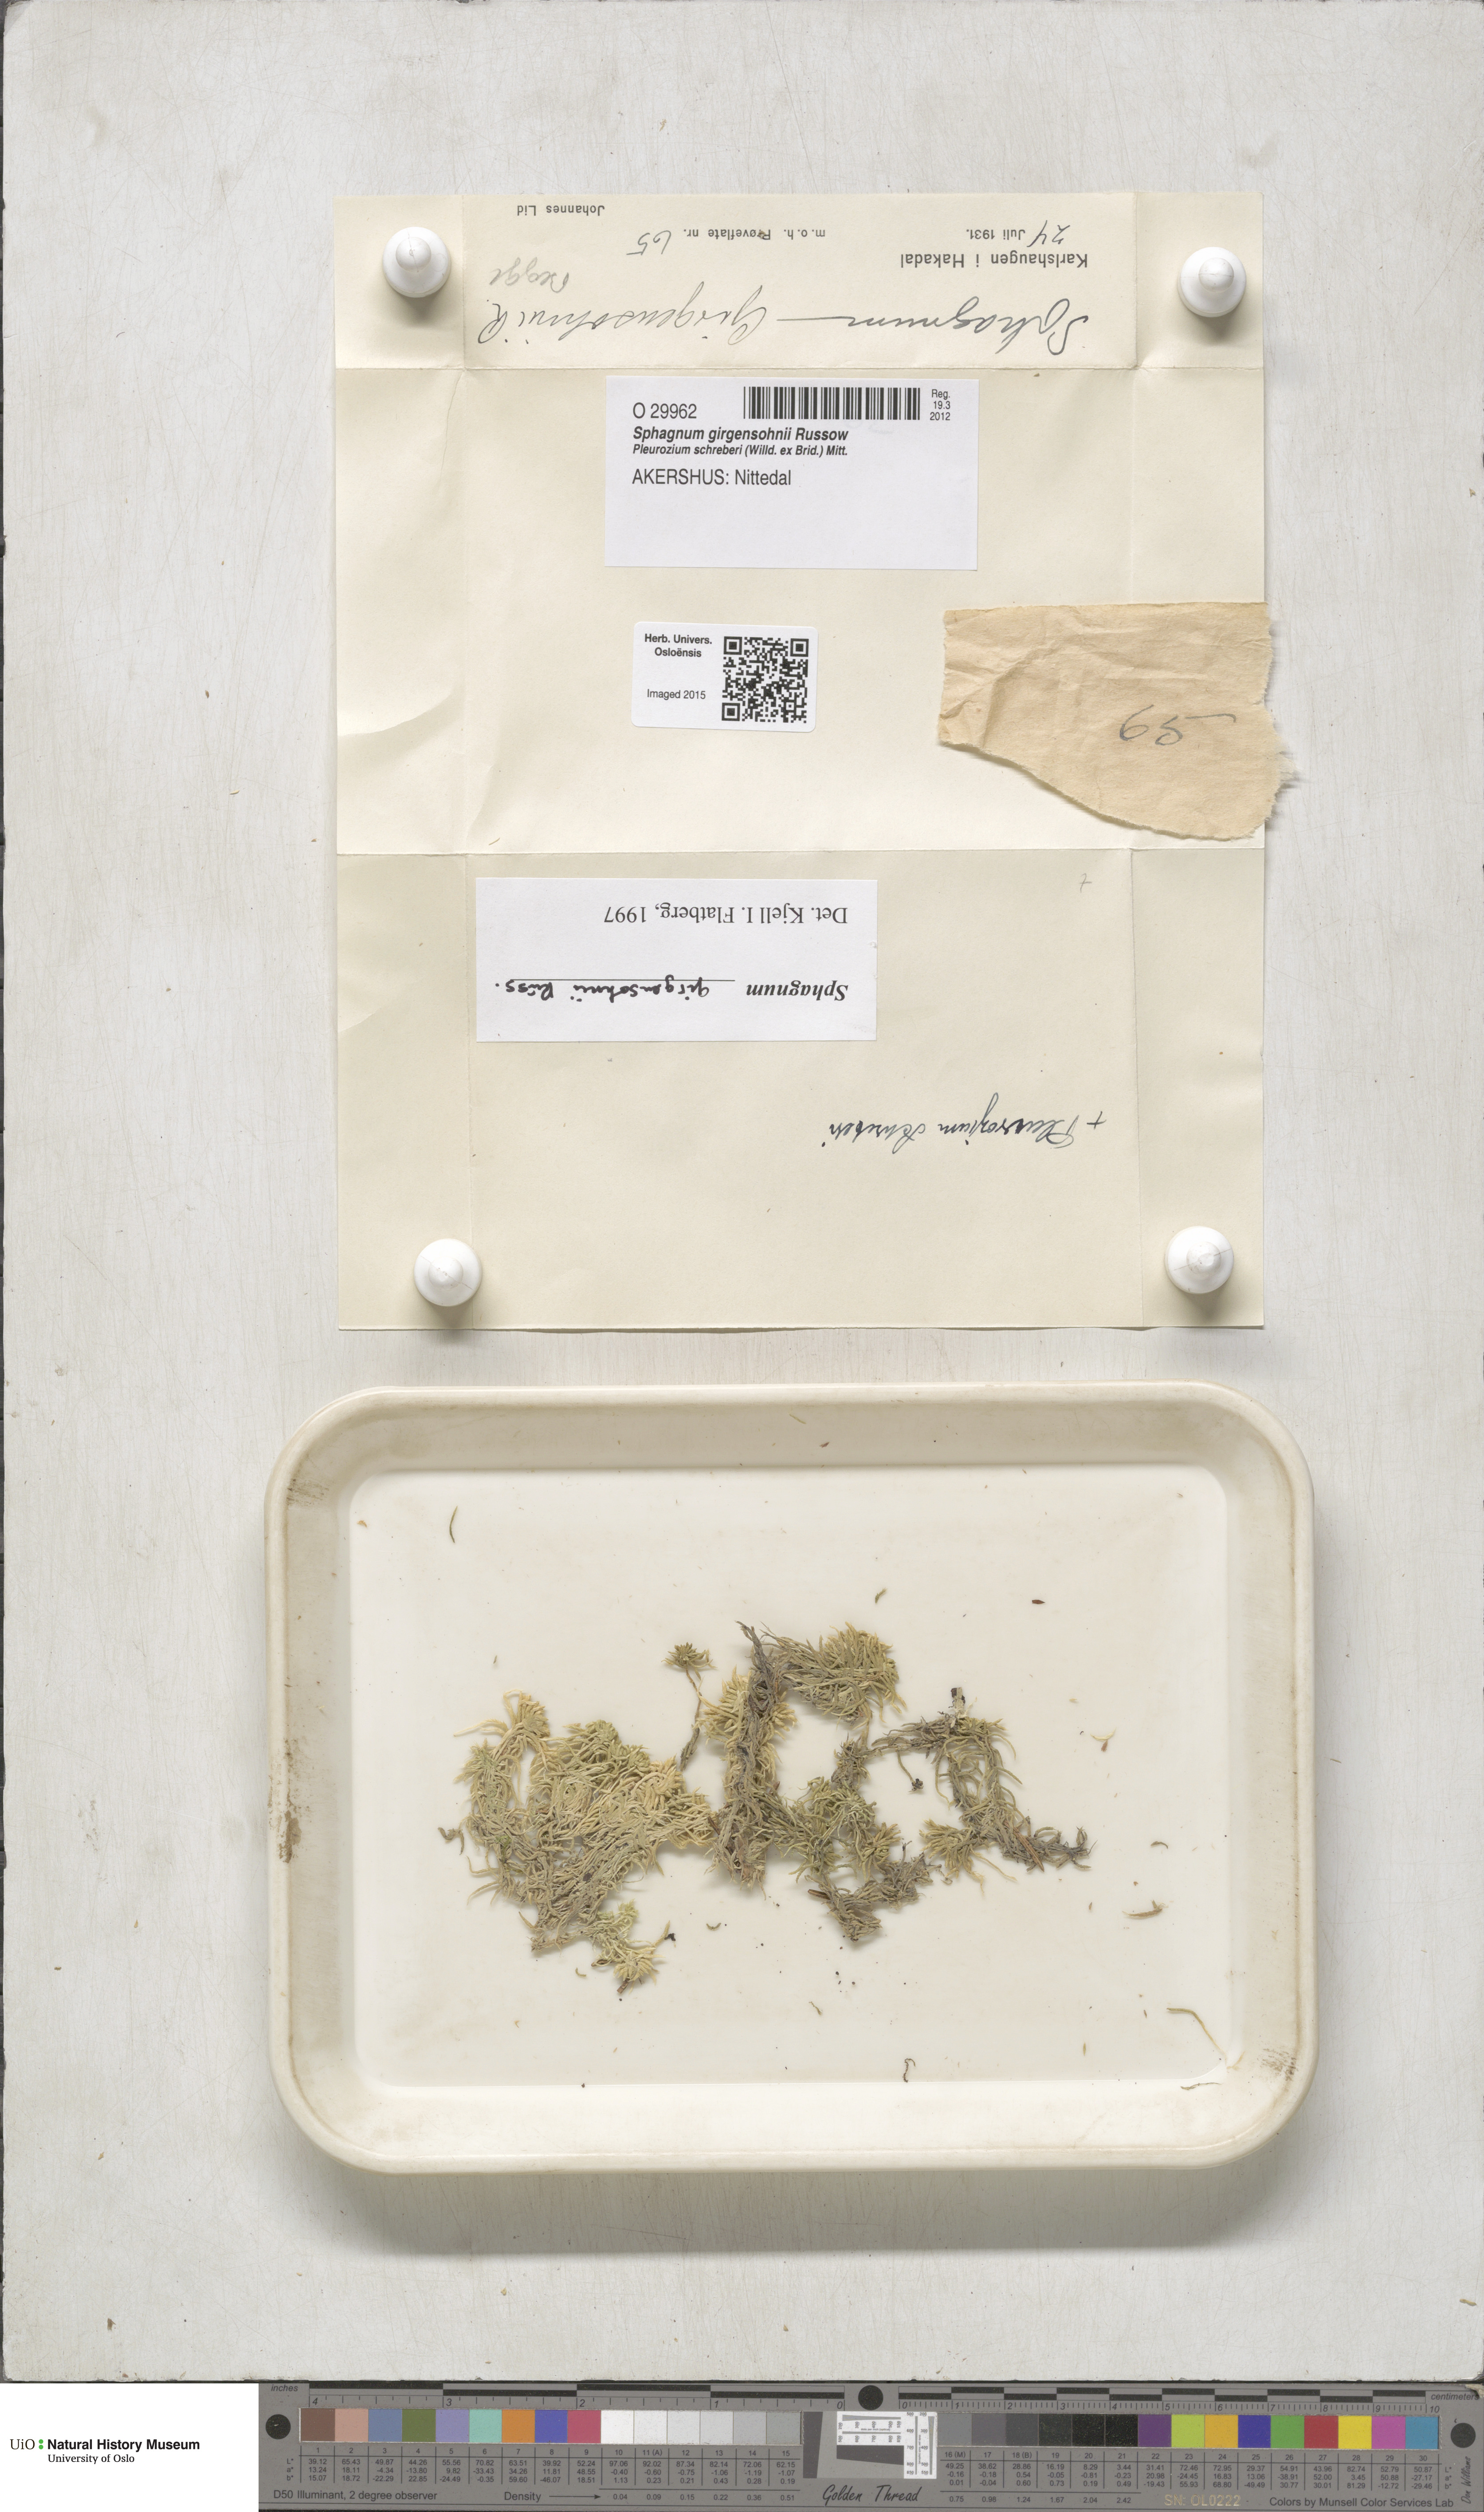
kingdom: Plantae
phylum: Bryophyta
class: Sphagnopsida
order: Sphagnales
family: Sphagnaceae
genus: Sphagnum
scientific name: Sphagnum girgensohnii
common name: Girgensohn's peat moss
